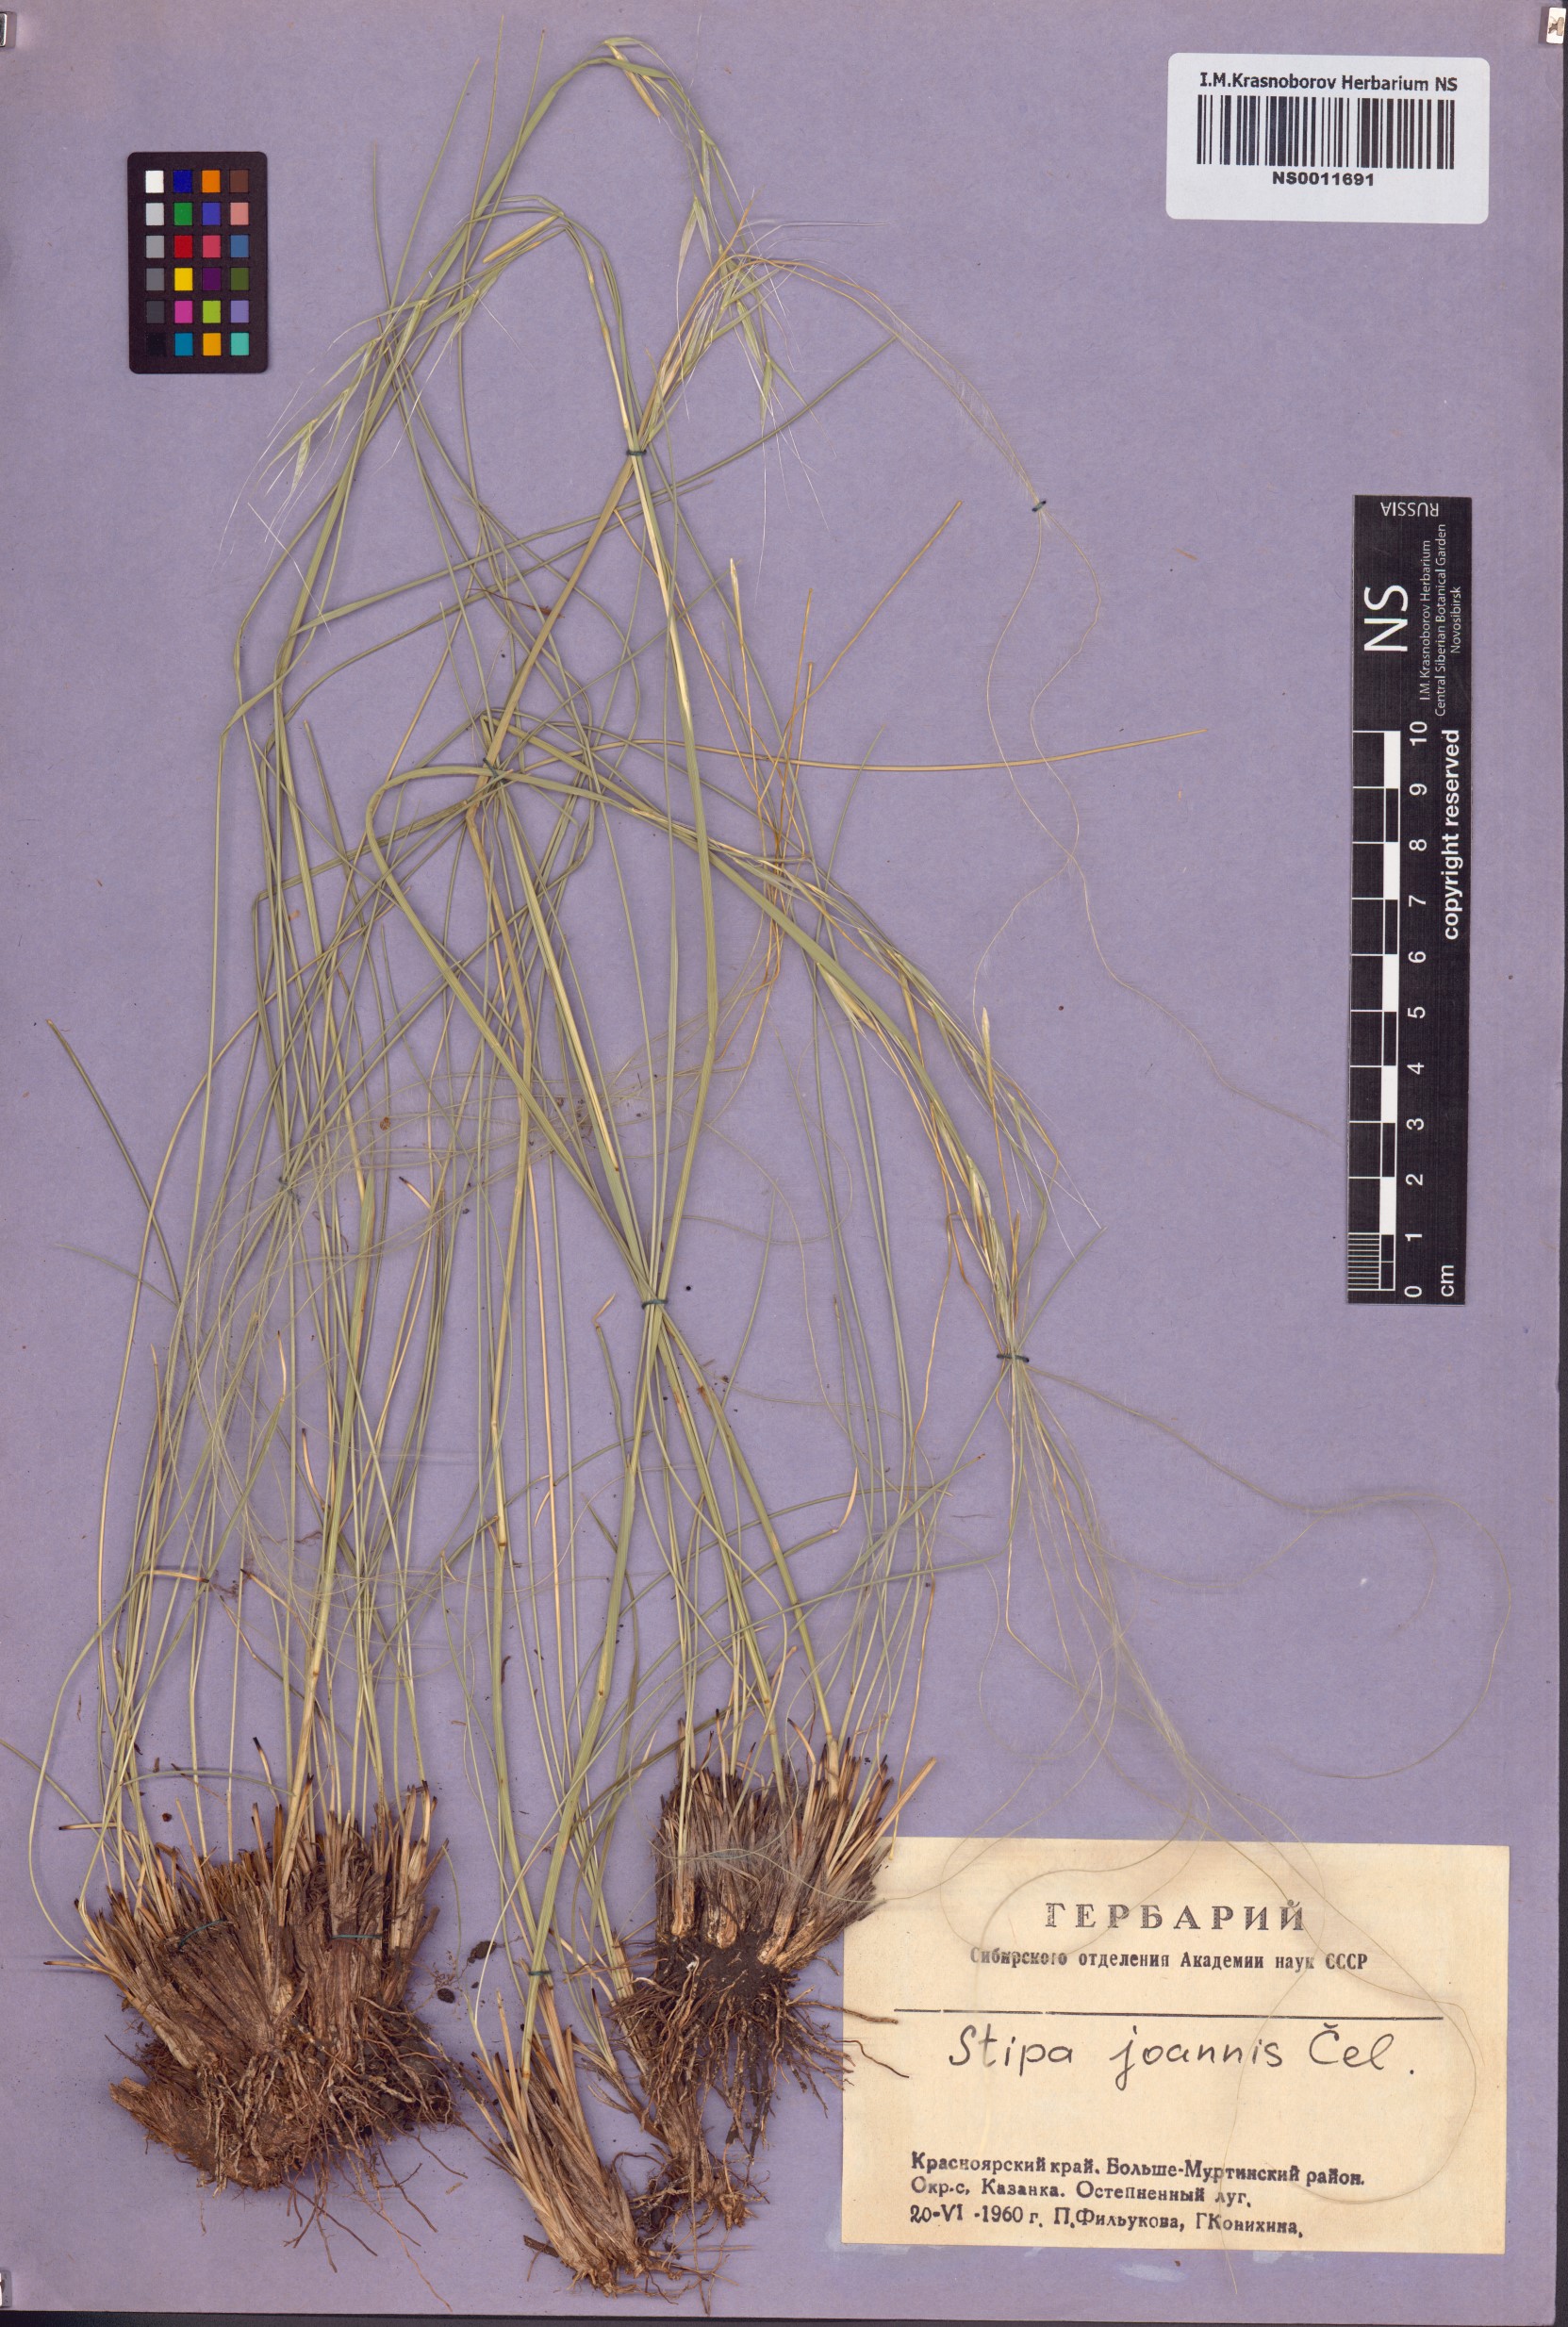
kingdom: Plantae
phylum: Tracheophyta
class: Liliopsida
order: Poales
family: Poaceae
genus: Stipa
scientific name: Stipa pennata
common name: European feather grass
